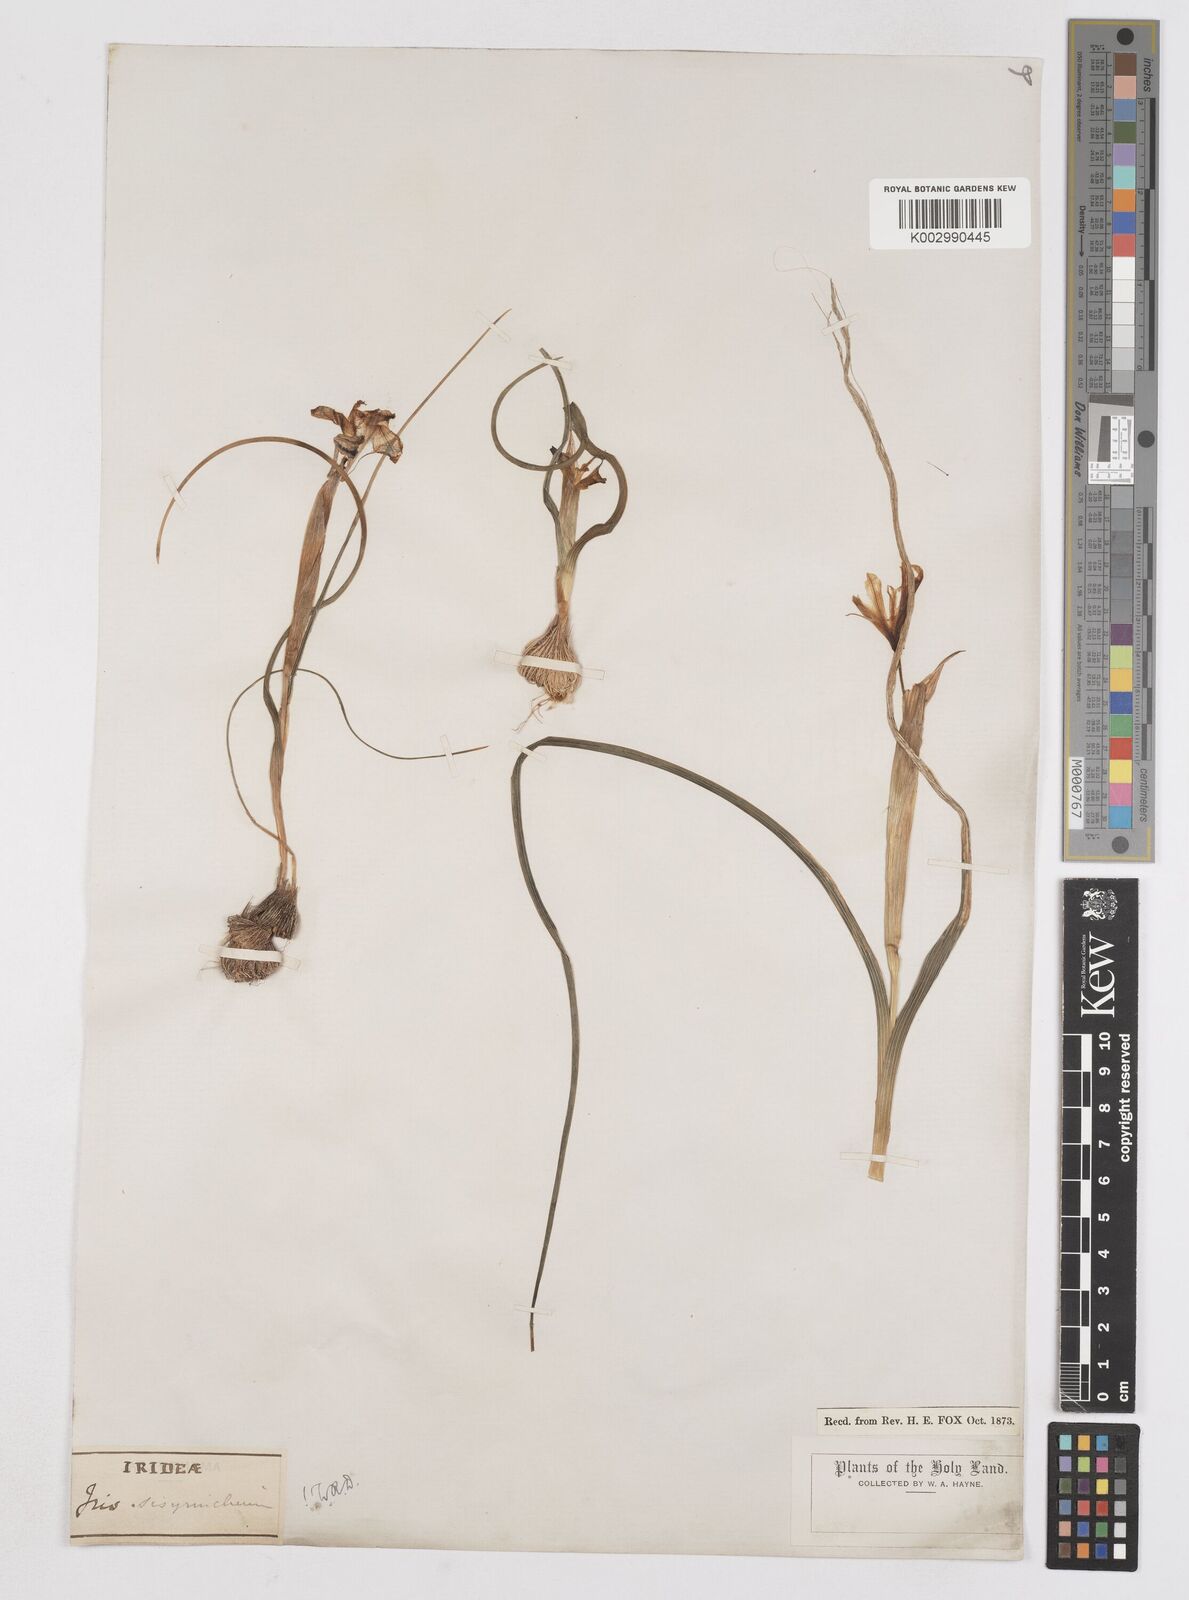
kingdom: Plantae
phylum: Tracheophyta
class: Liliopsida
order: Asparagales
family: Iridaceae
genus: Moraea
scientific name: Moraea sisyrinchium
